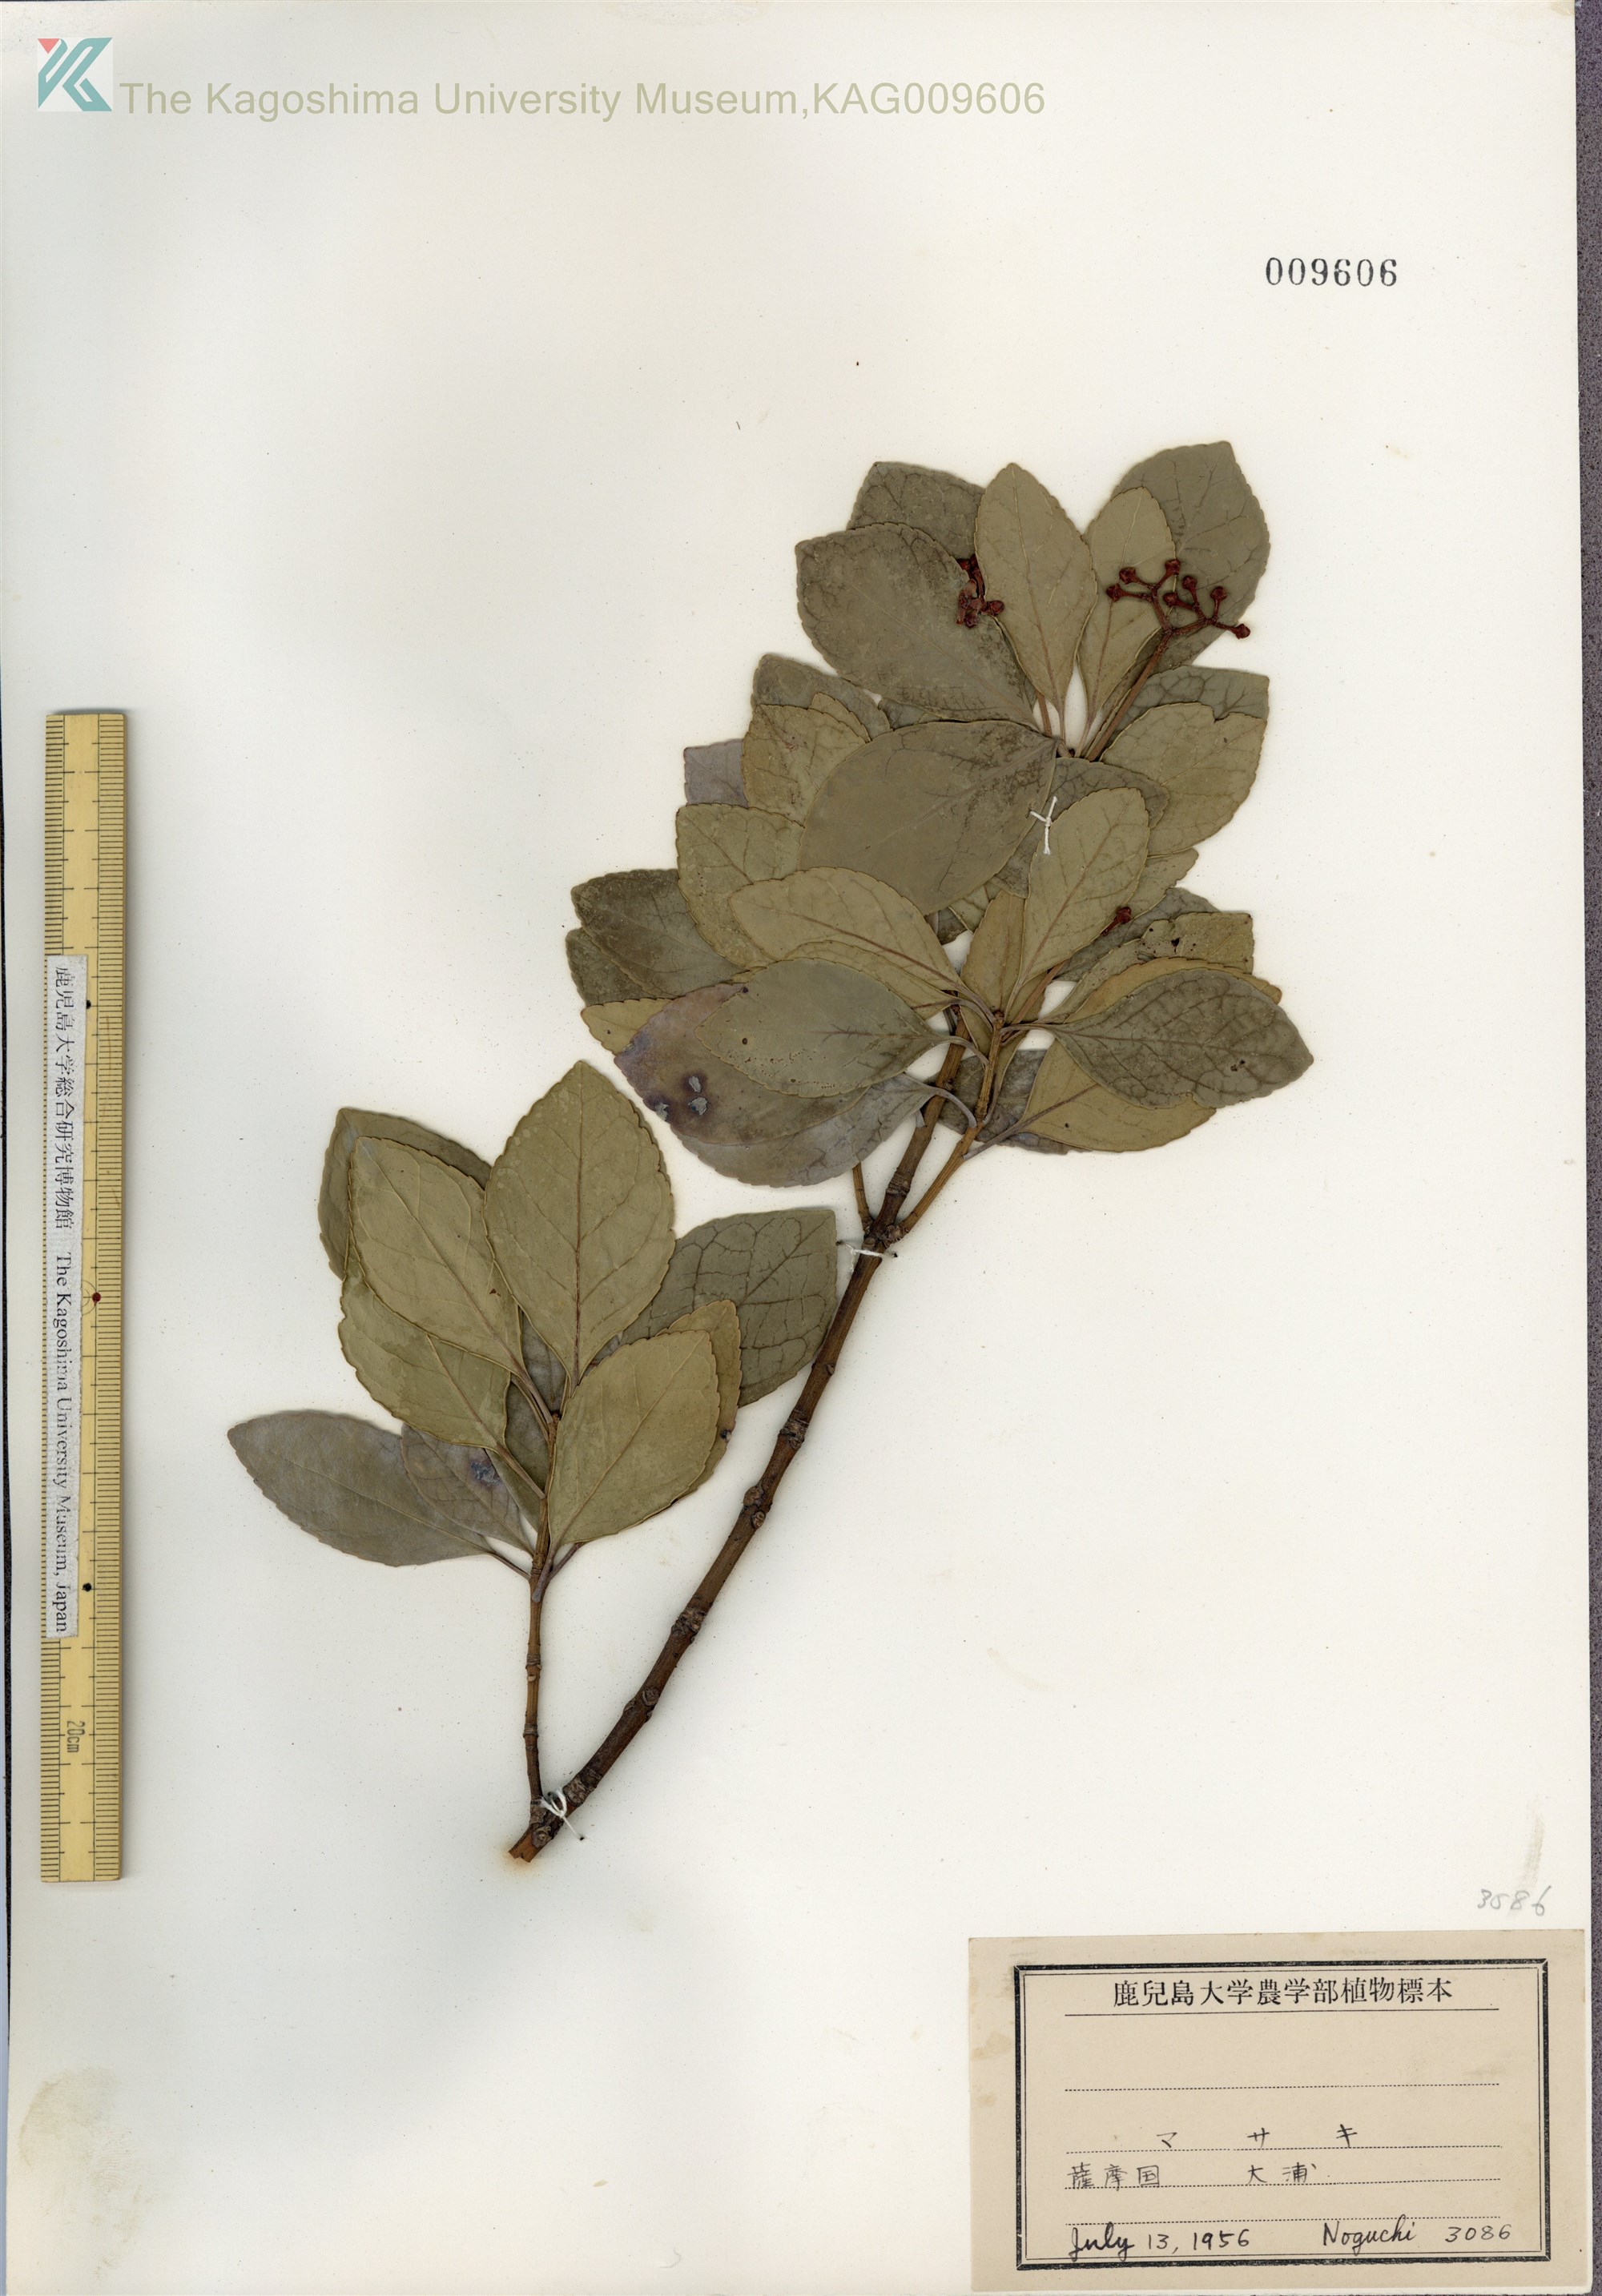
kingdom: Plantae
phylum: Tracheophyta
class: Magnoliopsida
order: Celastrales
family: Celastraceae
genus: Euonymus
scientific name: Euonymus japonicus
